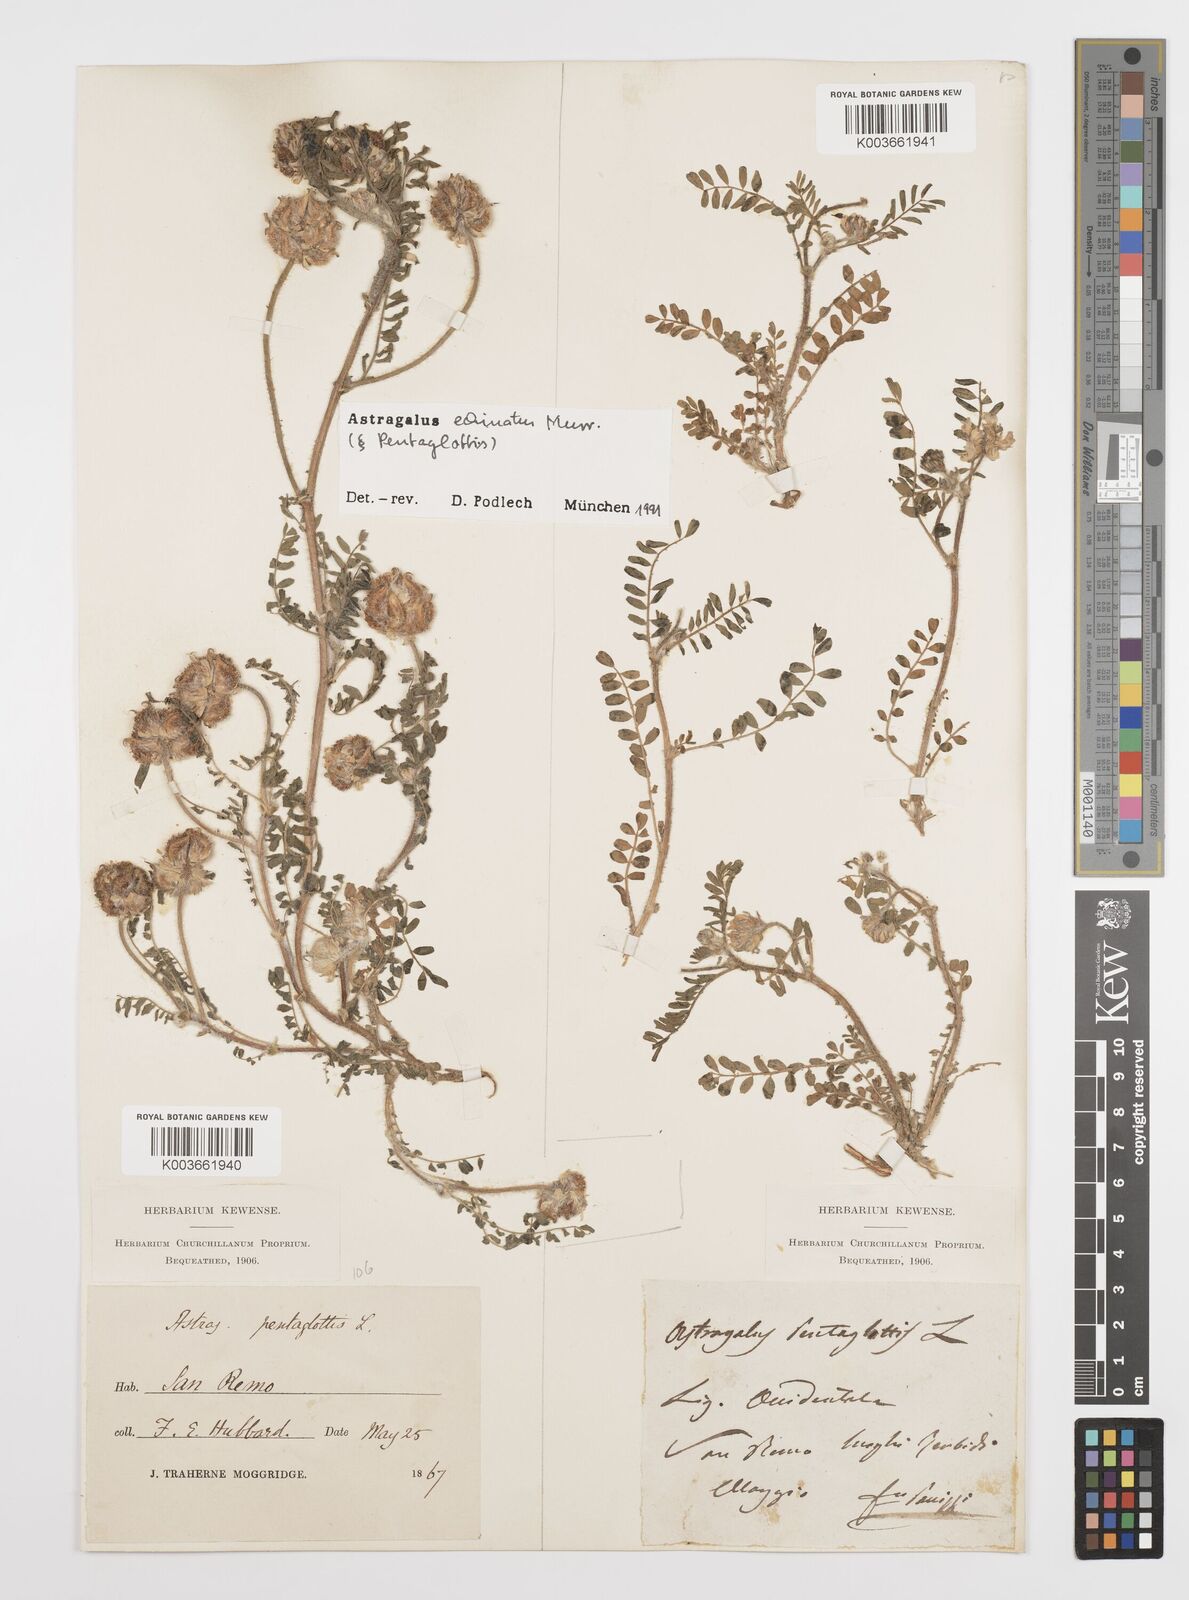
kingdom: Plantae
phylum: Tracheophyta
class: Magnoliopsida
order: Fabales
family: Fabaceae
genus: Astragalus
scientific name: Astragalus echinatus
